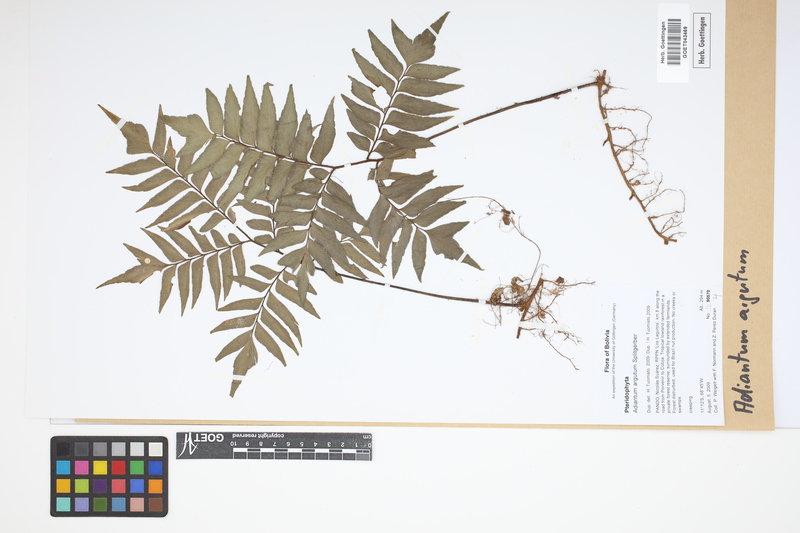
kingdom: Plantae
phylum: Tracheophyta
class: Polypodiopsida
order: Polypodiales
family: Pteridaceae
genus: Adiantum
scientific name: Adiantum argutum
